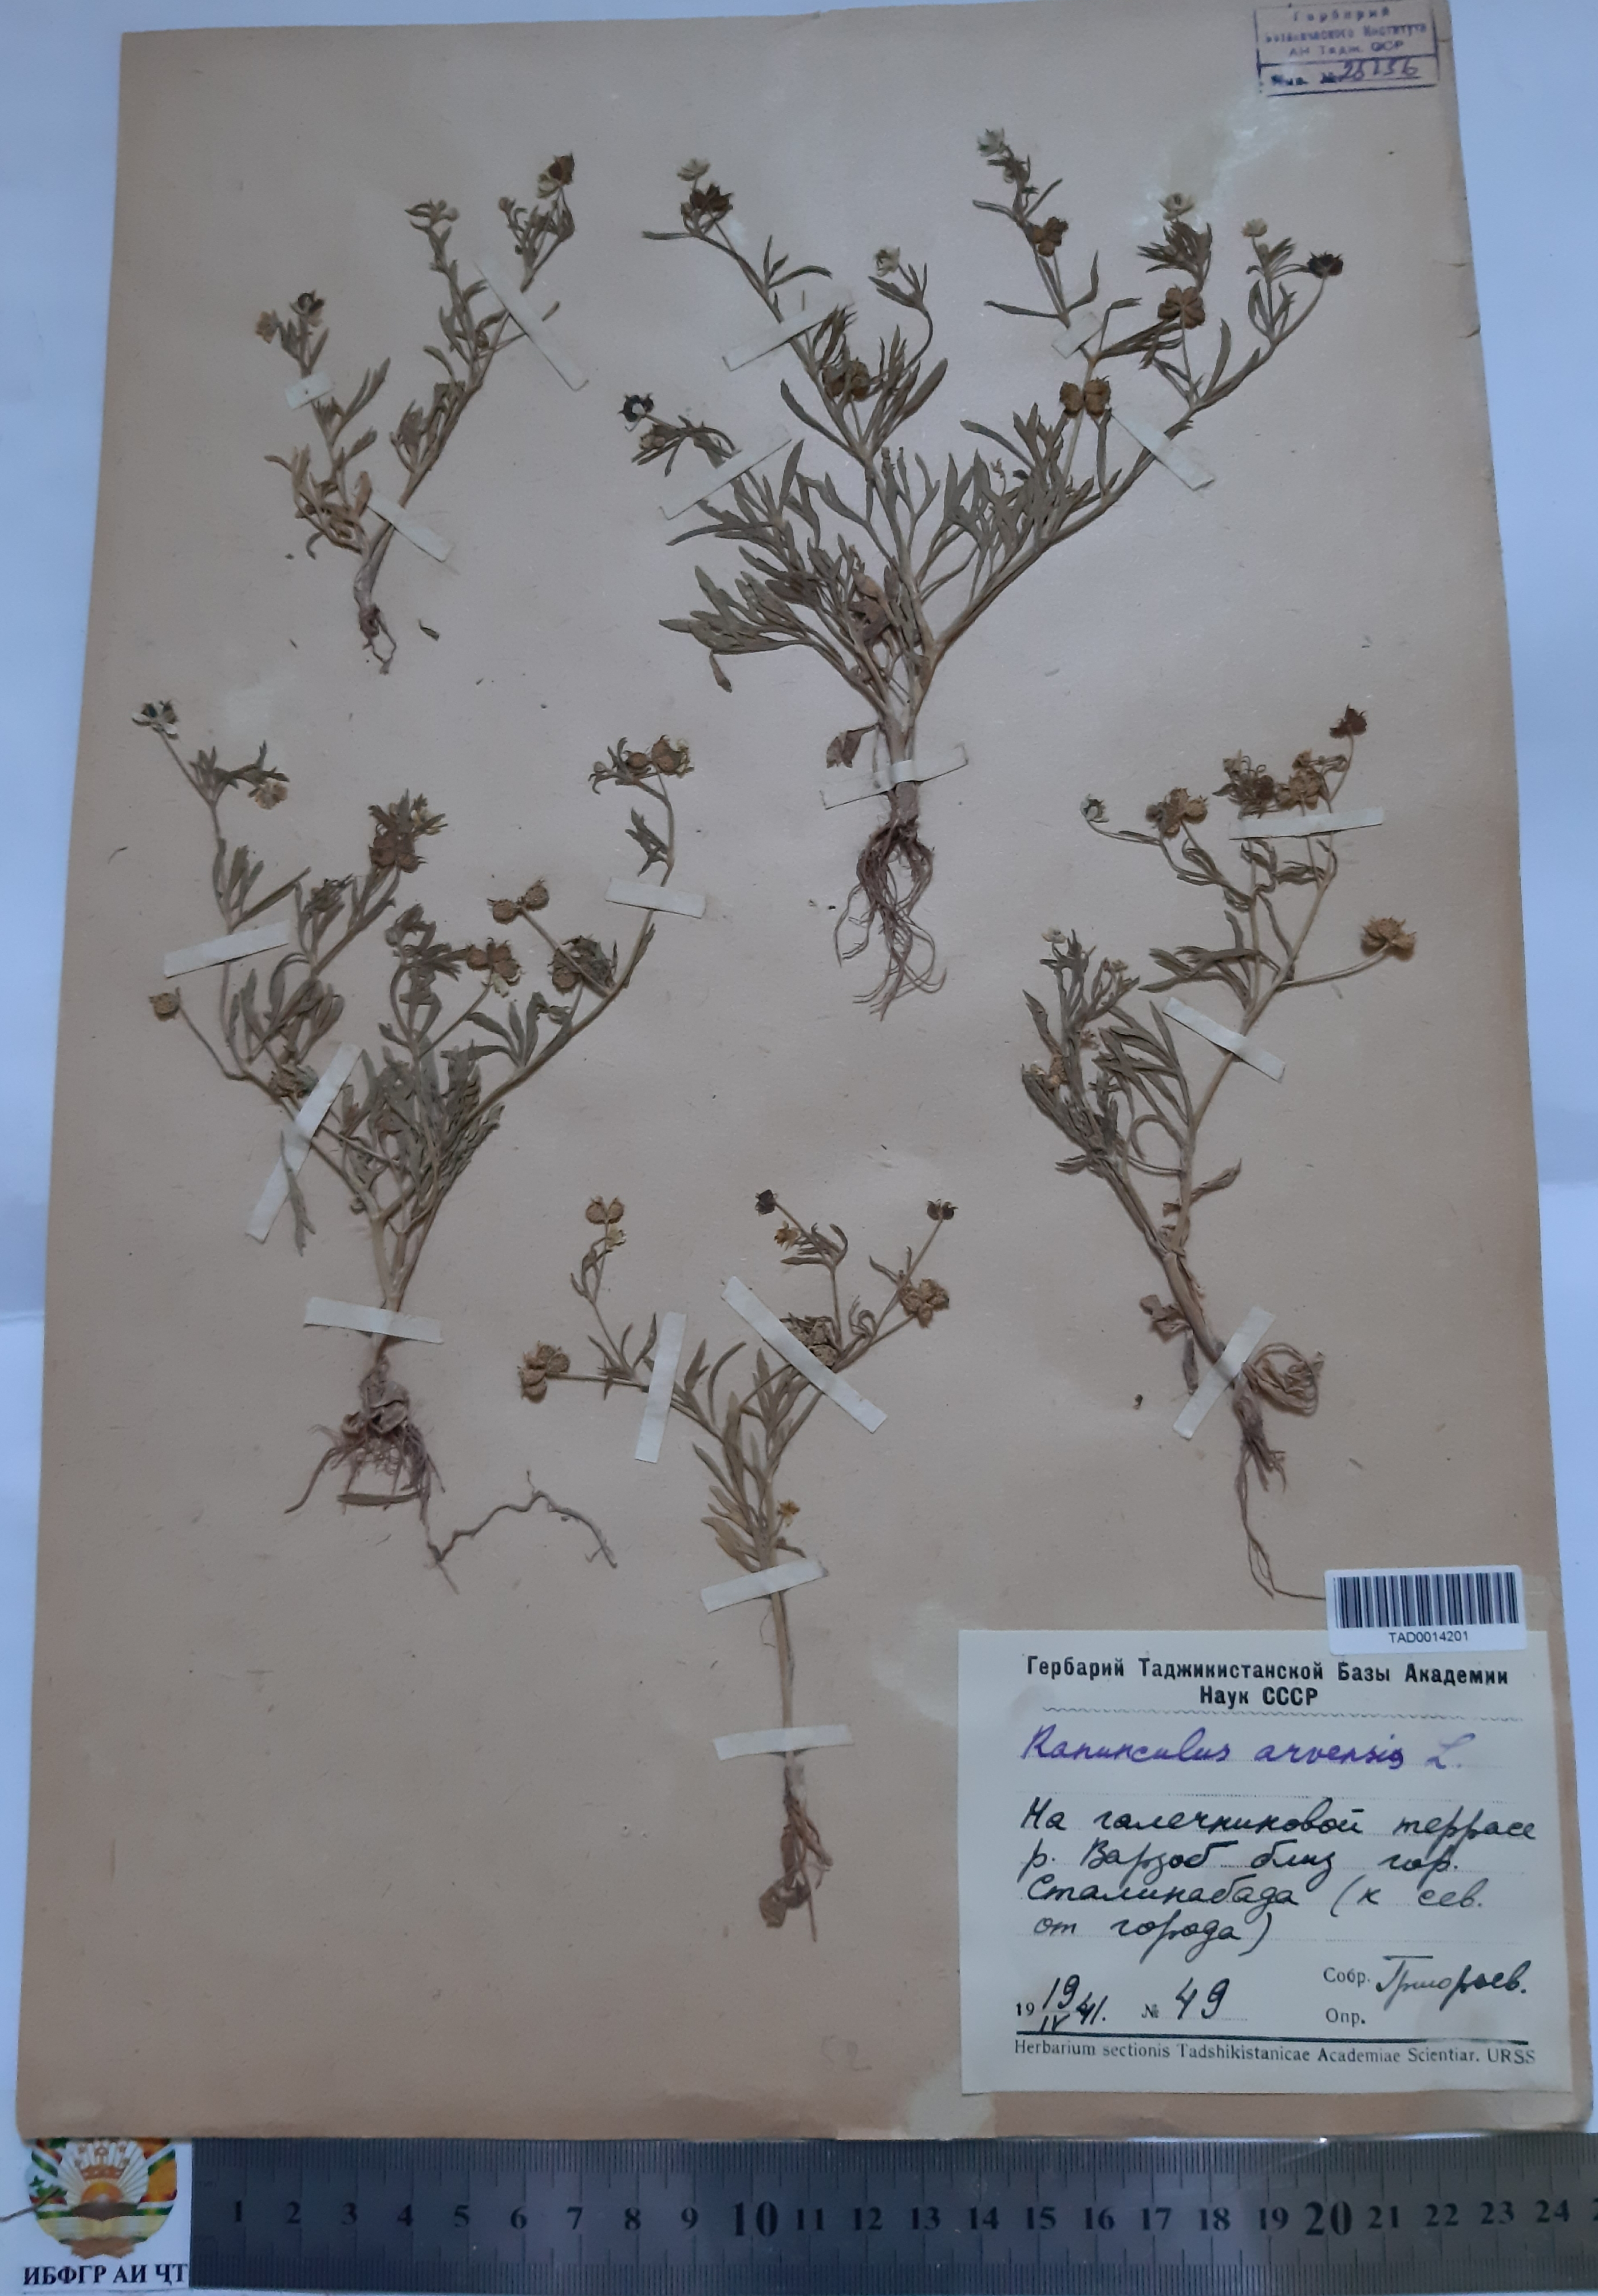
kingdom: Plantae
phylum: Tracheophyta
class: Magnoliopsida
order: Ranunculales
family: Ranunculaceae
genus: Ranunculus
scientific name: Ranunculus arvensis
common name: Corn buttercup
